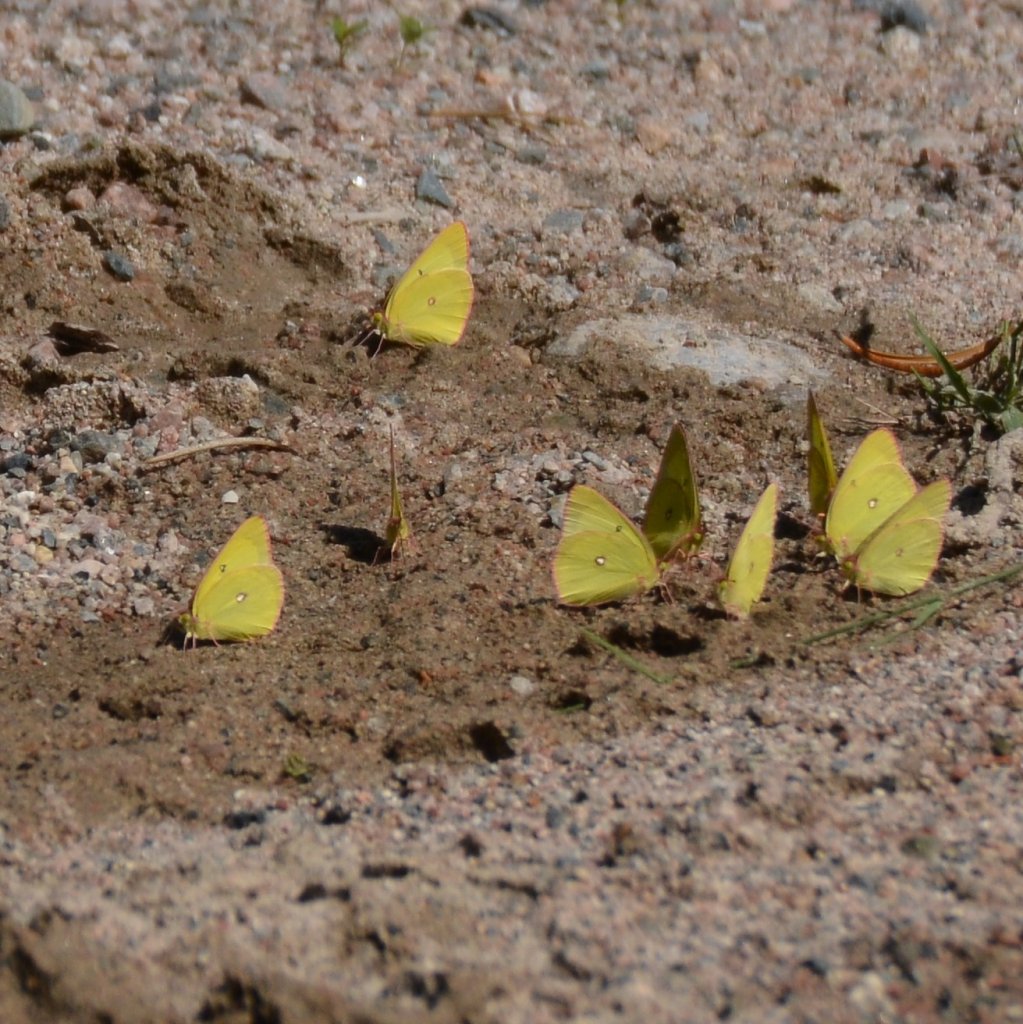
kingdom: Animalia
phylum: Arthropoda
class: Insecta
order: Lepidoptera
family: Pieridae
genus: Colias
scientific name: Colias interior
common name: Pink-edged Sulphur
